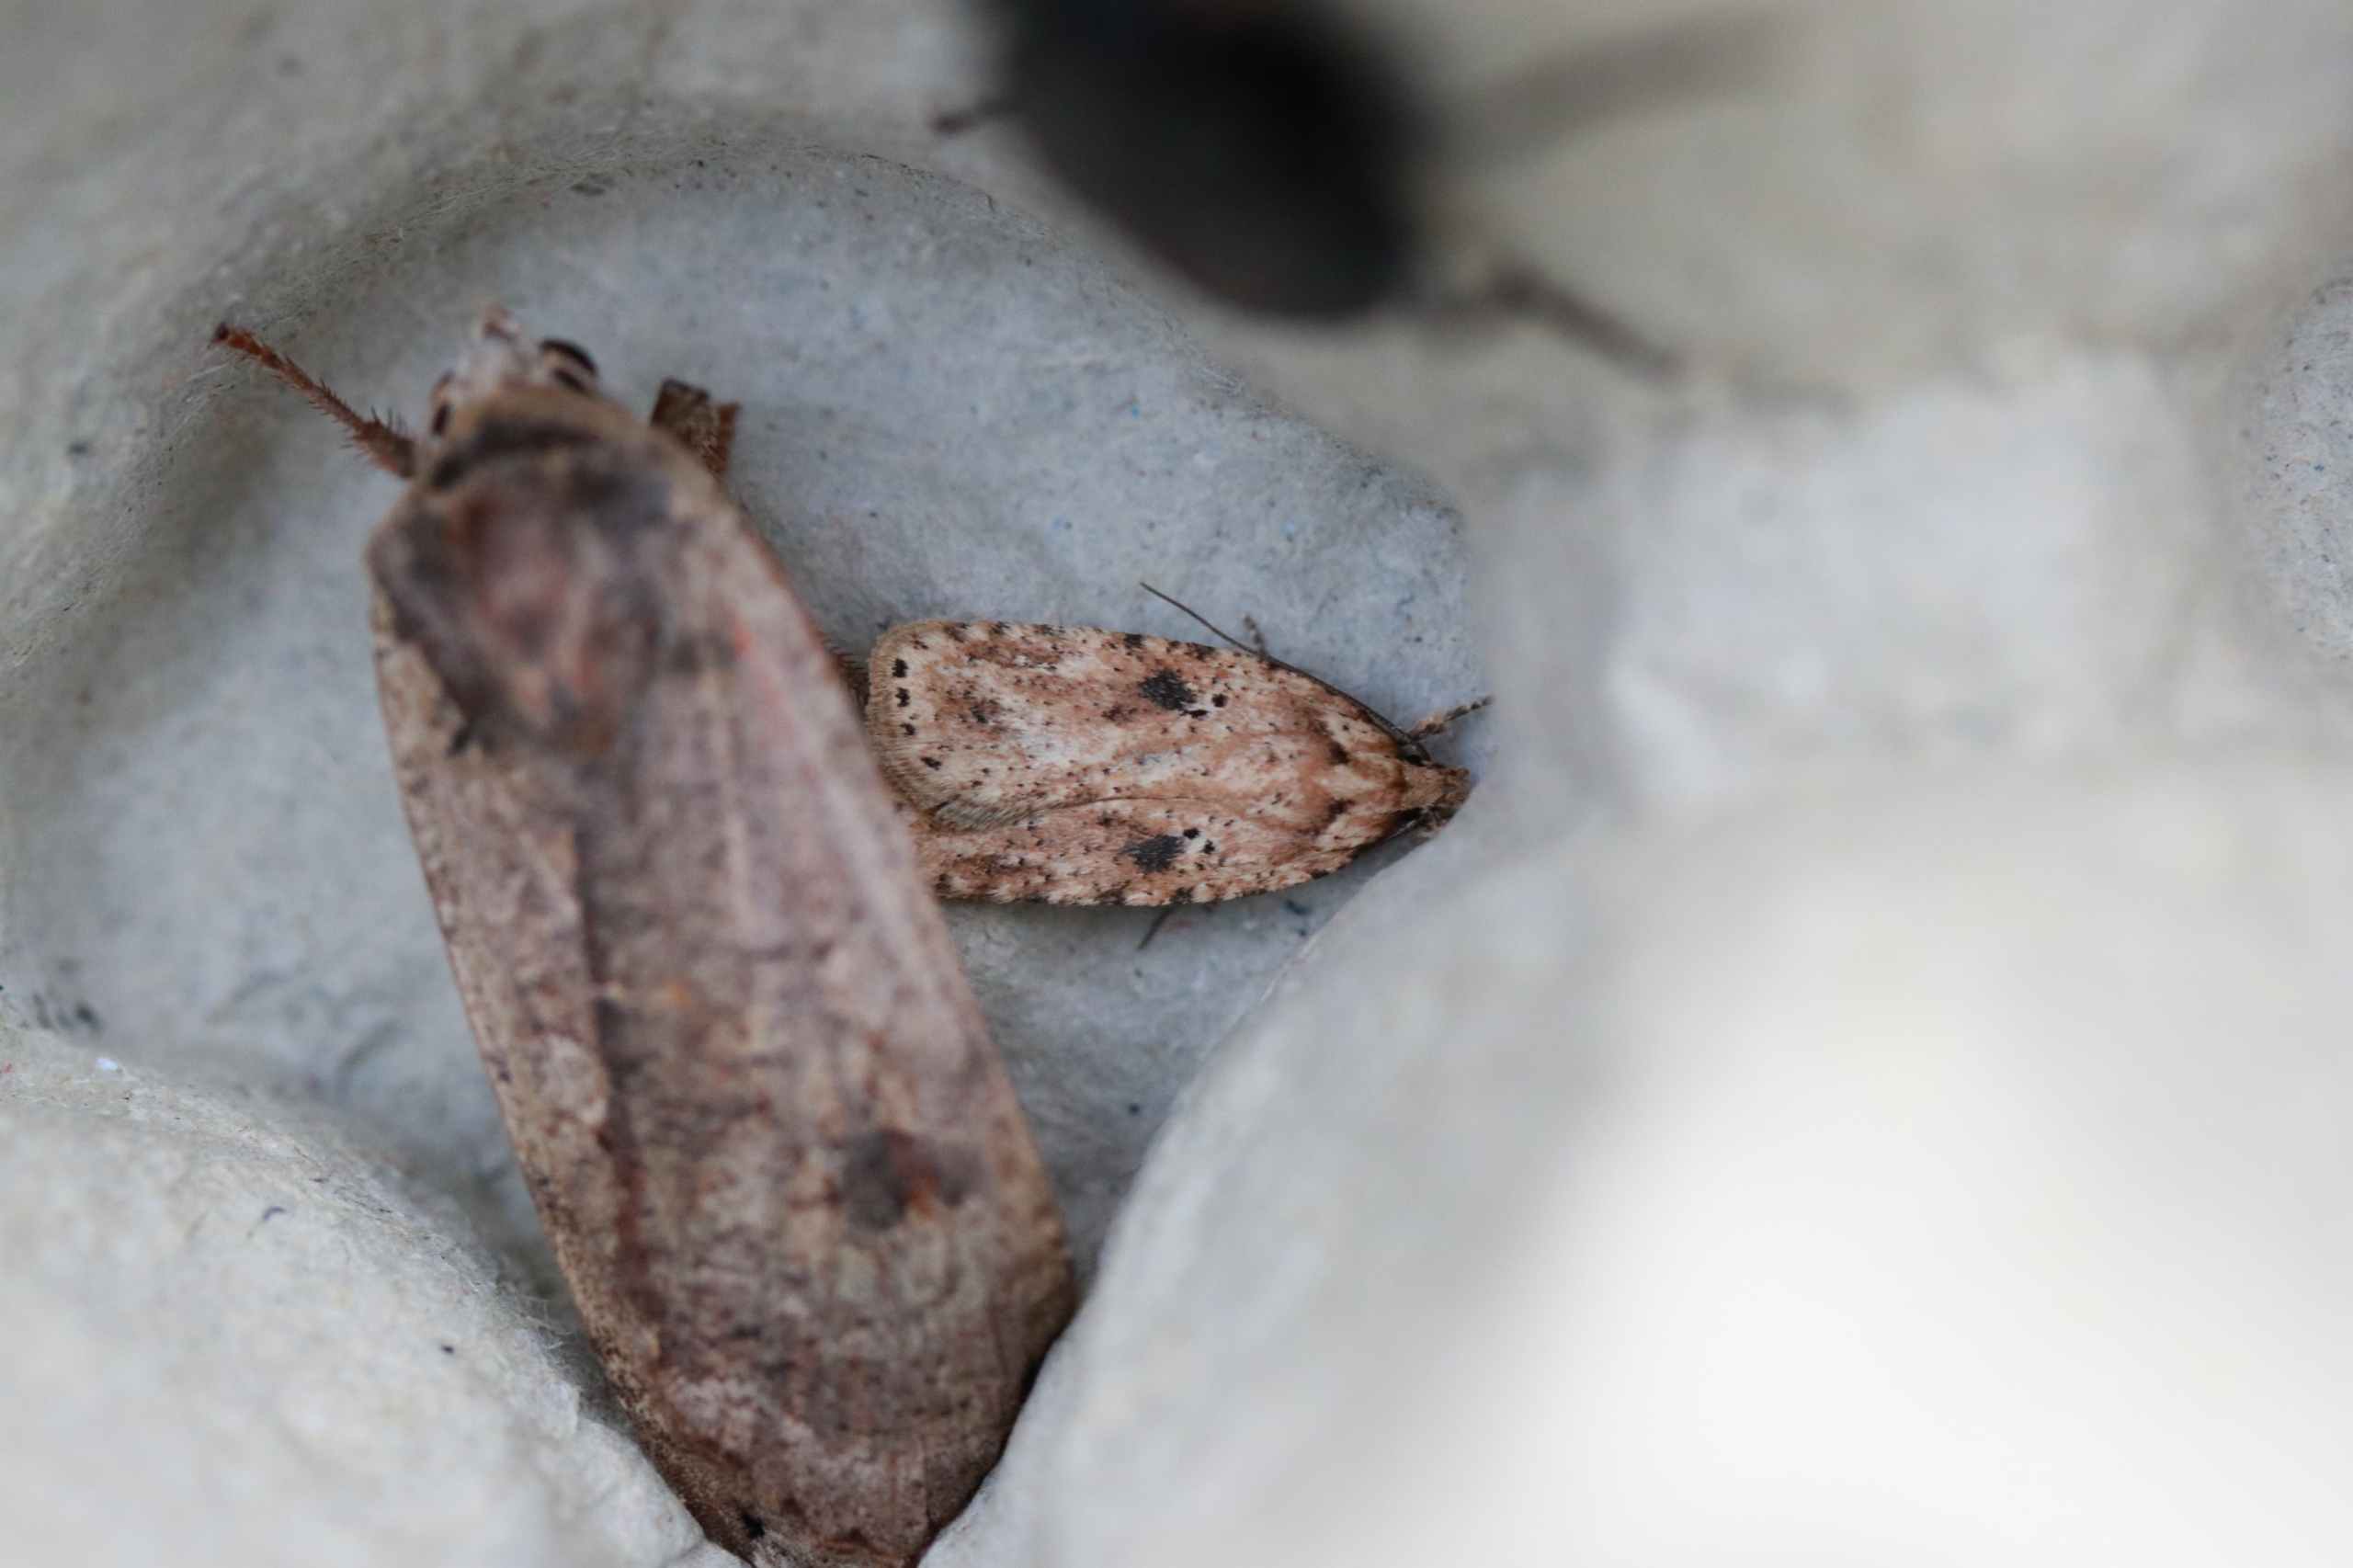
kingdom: Animalia
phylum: Arthropoda
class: Insecta
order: Lepidoptera
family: Depressariidae
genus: Agonopterix
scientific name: Agonopterix arenella
